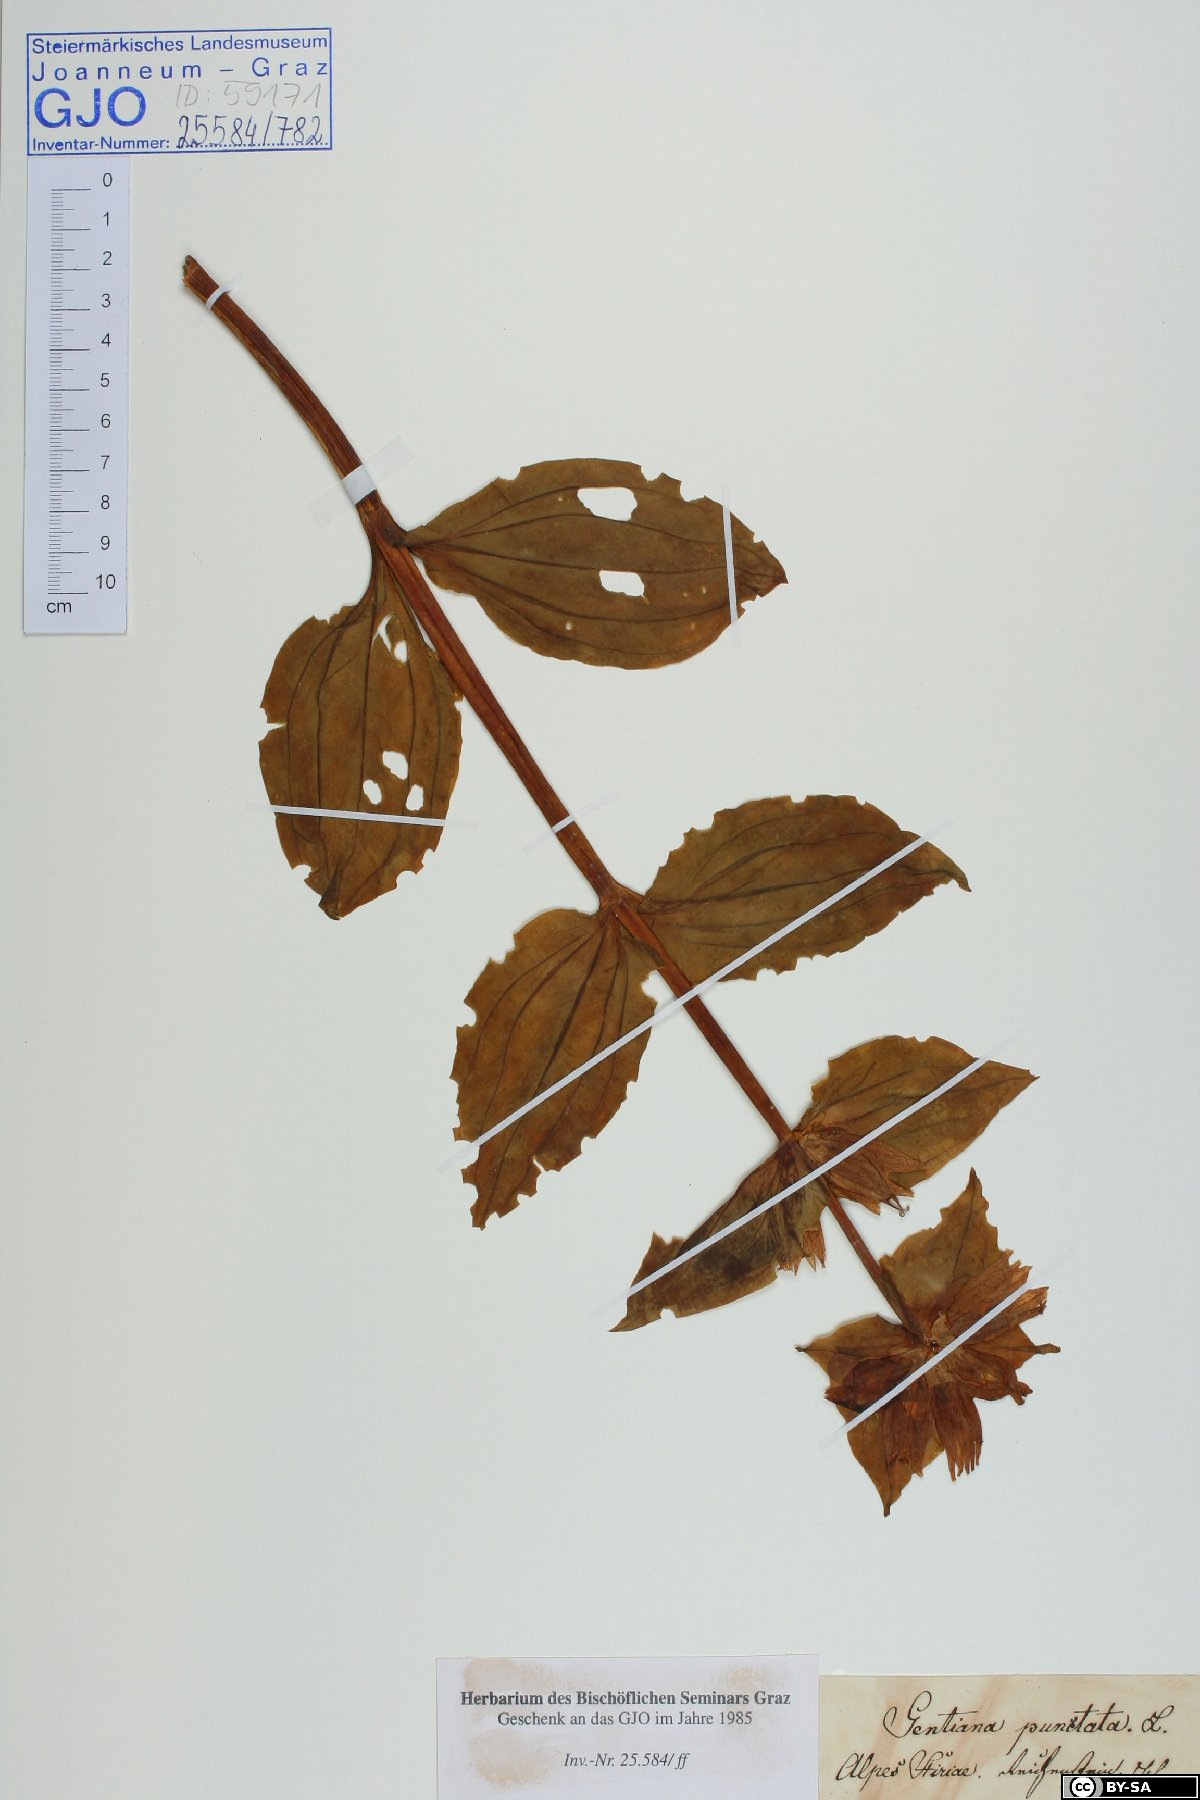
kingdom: Plantae
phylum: Tracheophyta
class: Magnoliopsida
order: Gentianales
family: Gentianaceae
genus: Gentiana
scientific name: Gentiana punctata
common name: Spotted gentian
